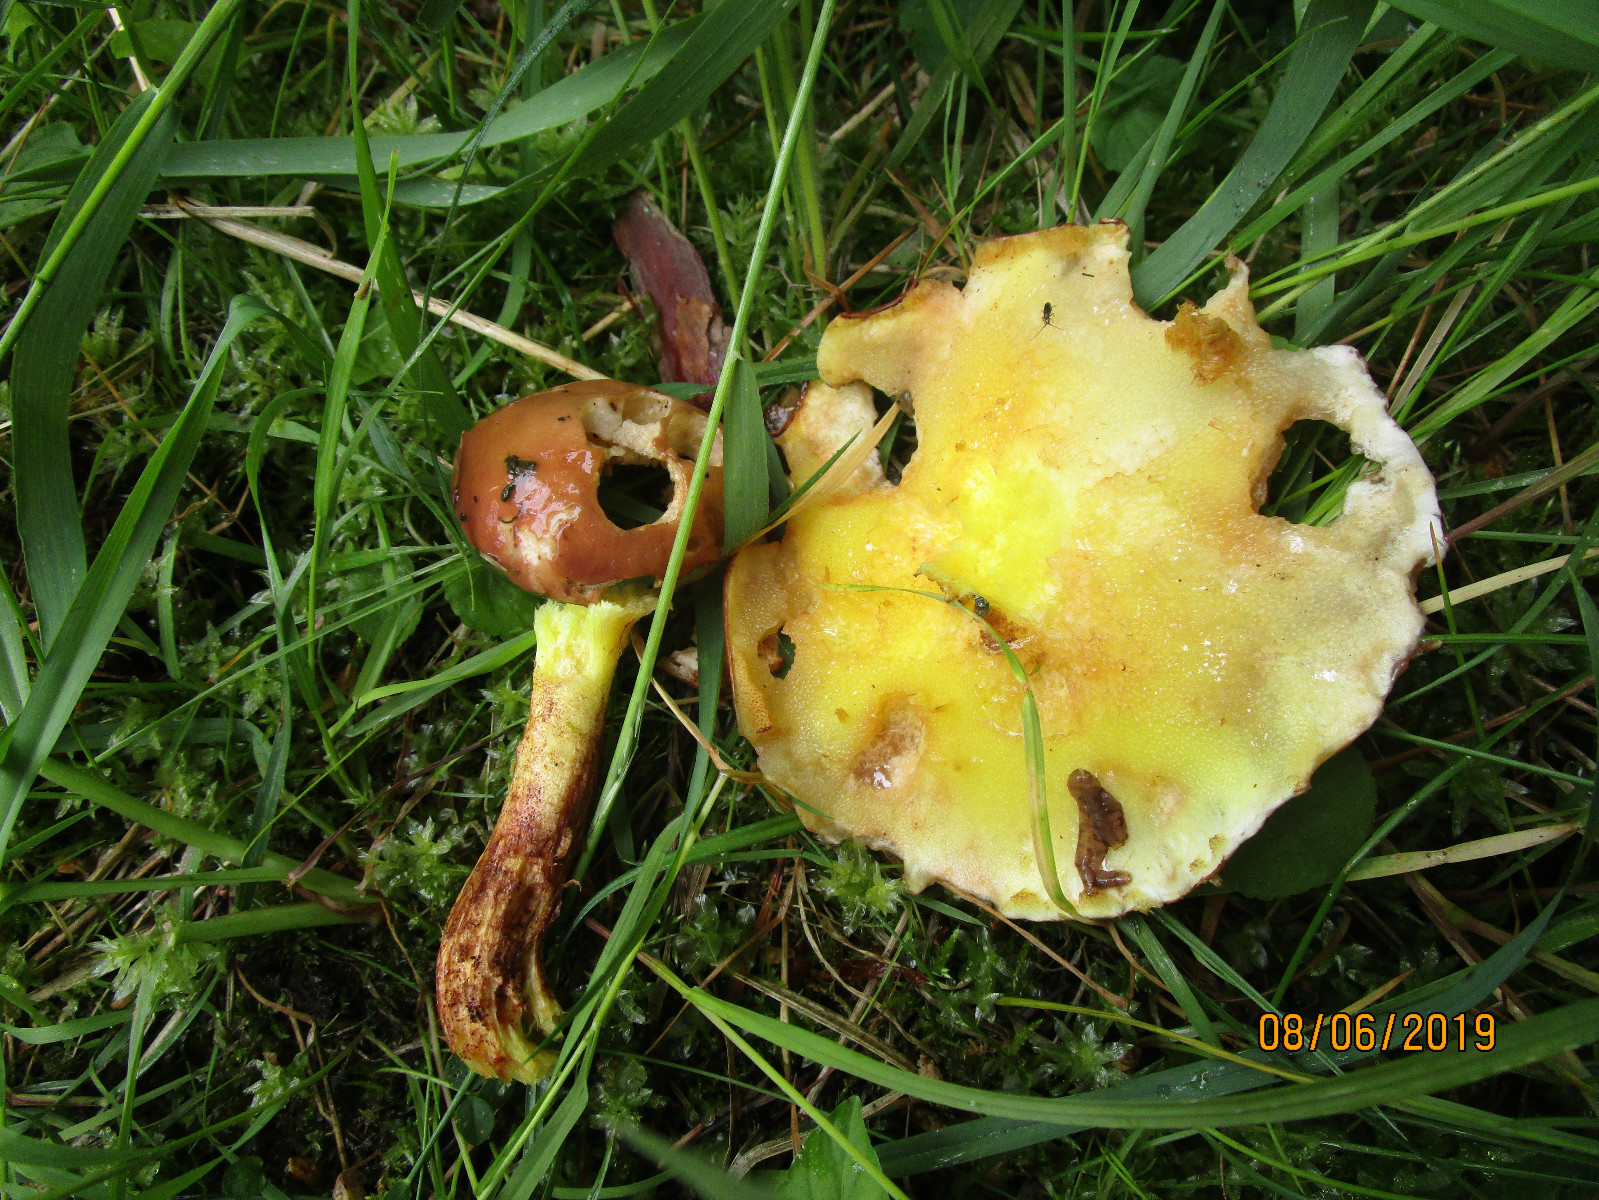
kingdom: Fungi
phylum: Basidiomycota
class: Agaricomycetes
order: Boletales
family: Suillaceae
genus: Suillus
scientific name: Suillus granulatus
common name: kornet slimrørhat
